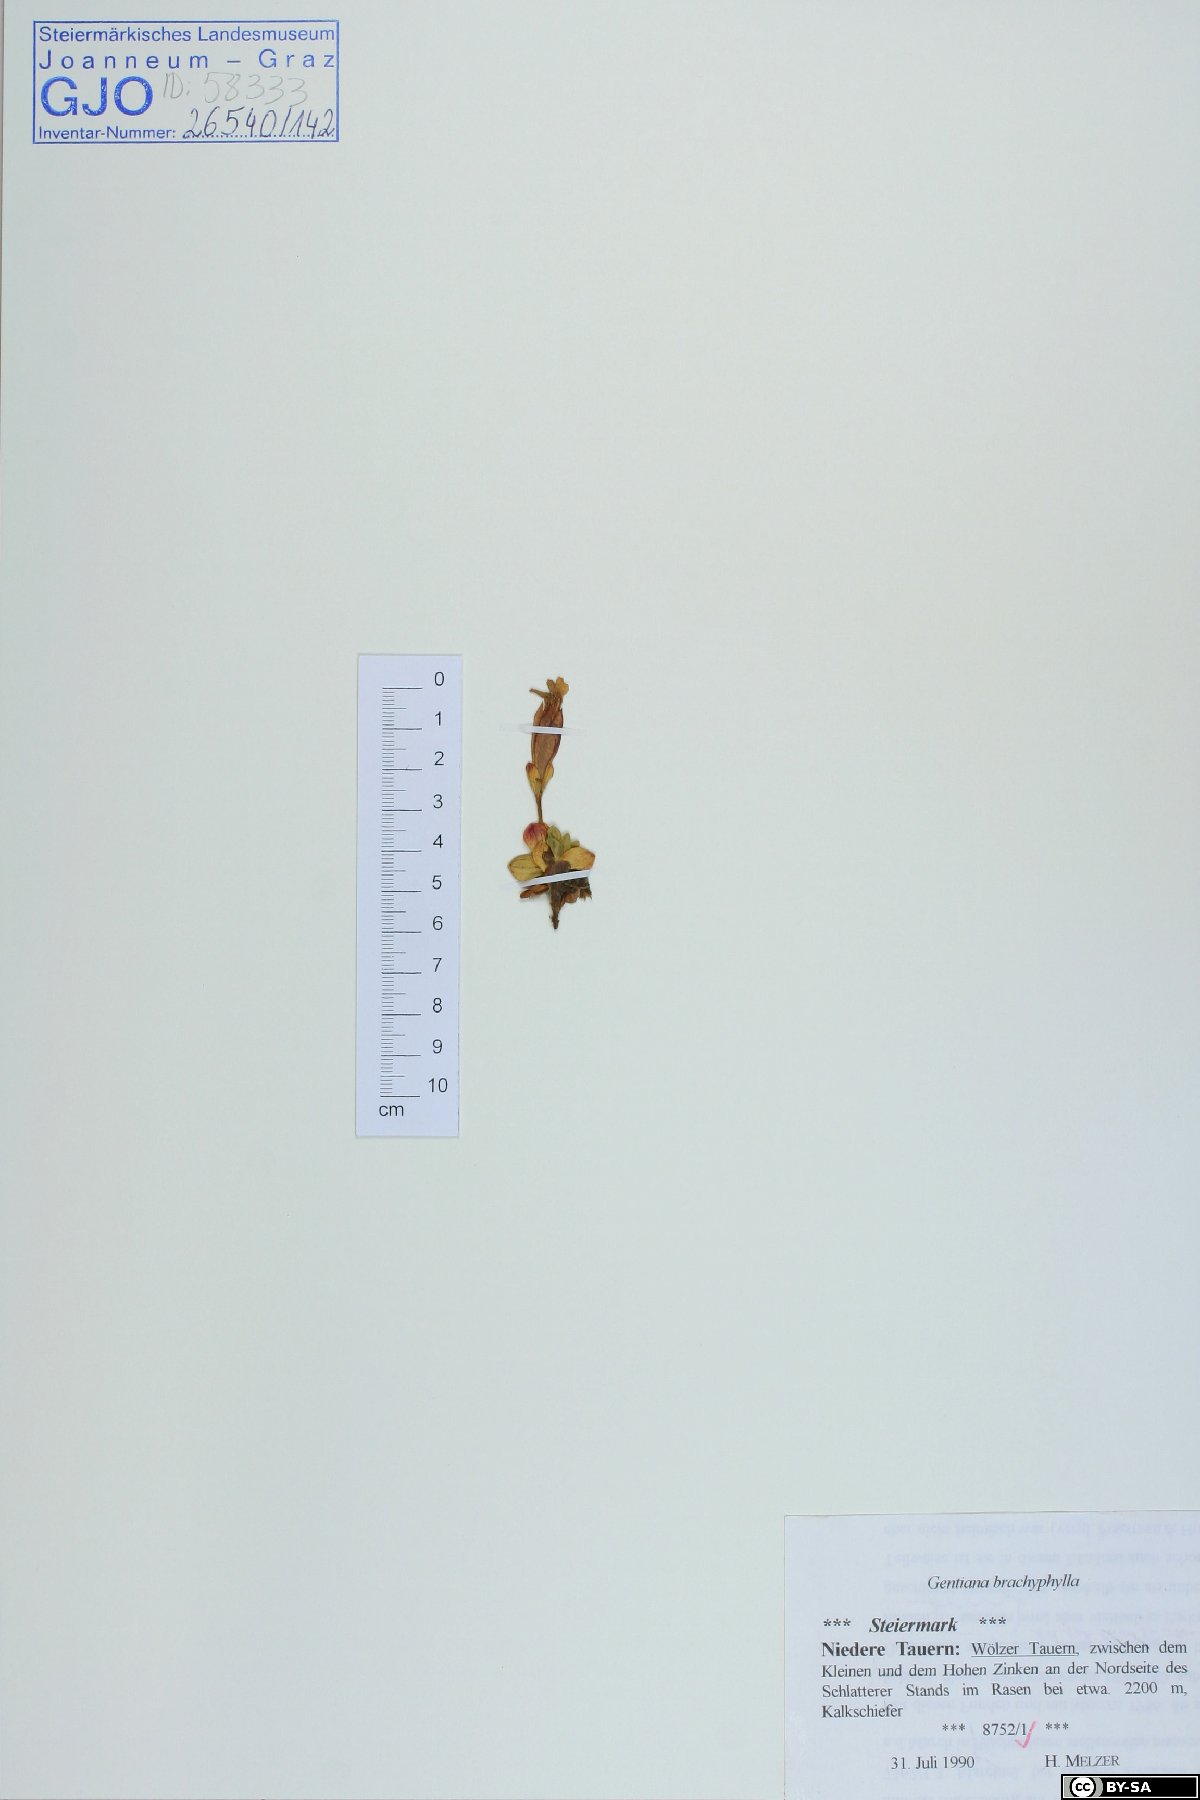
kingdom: Plantae
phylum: Tracheophyta
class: Magnoliopsida
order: Gentianales
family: Gentianaceae
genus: Gentiana
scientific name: Gentiana brachyphylla
